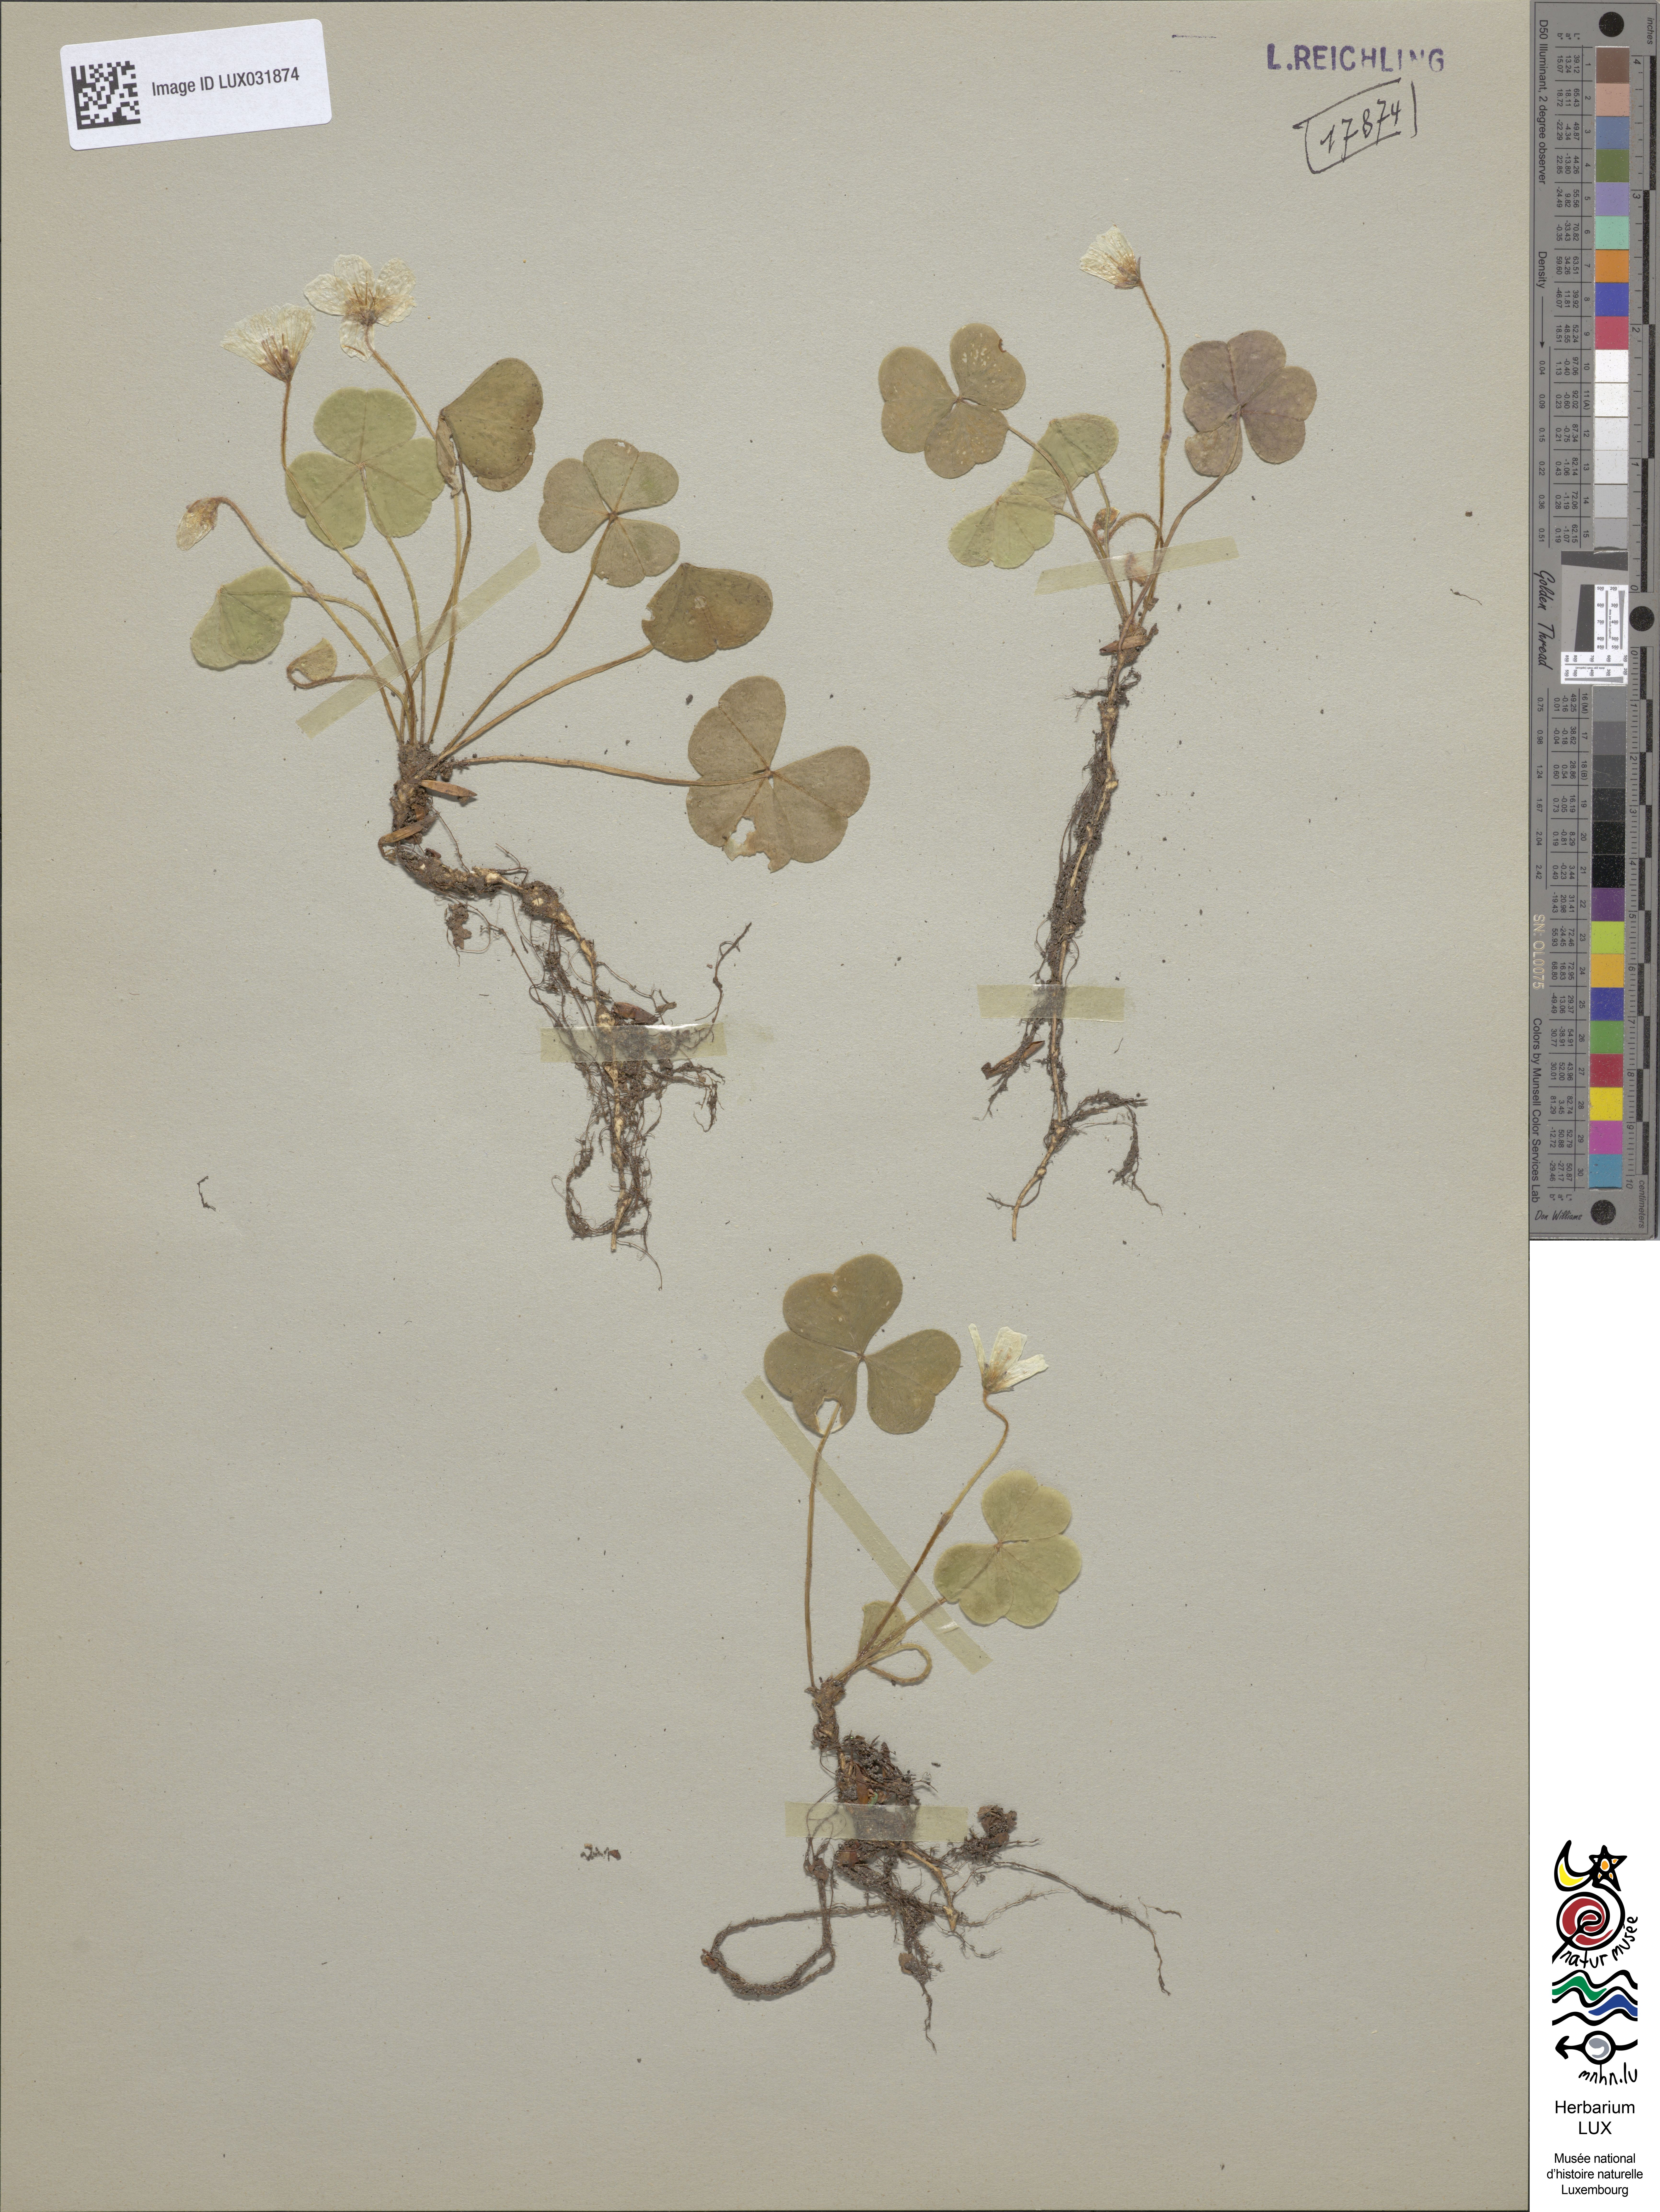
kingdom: Plantae
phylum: Tracheophyta
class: Magnoliopsida
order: Oxalidales
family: Oxalidaceae
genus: Oxalis
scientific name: Oxalis acetosella
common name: Wood-sorrel
